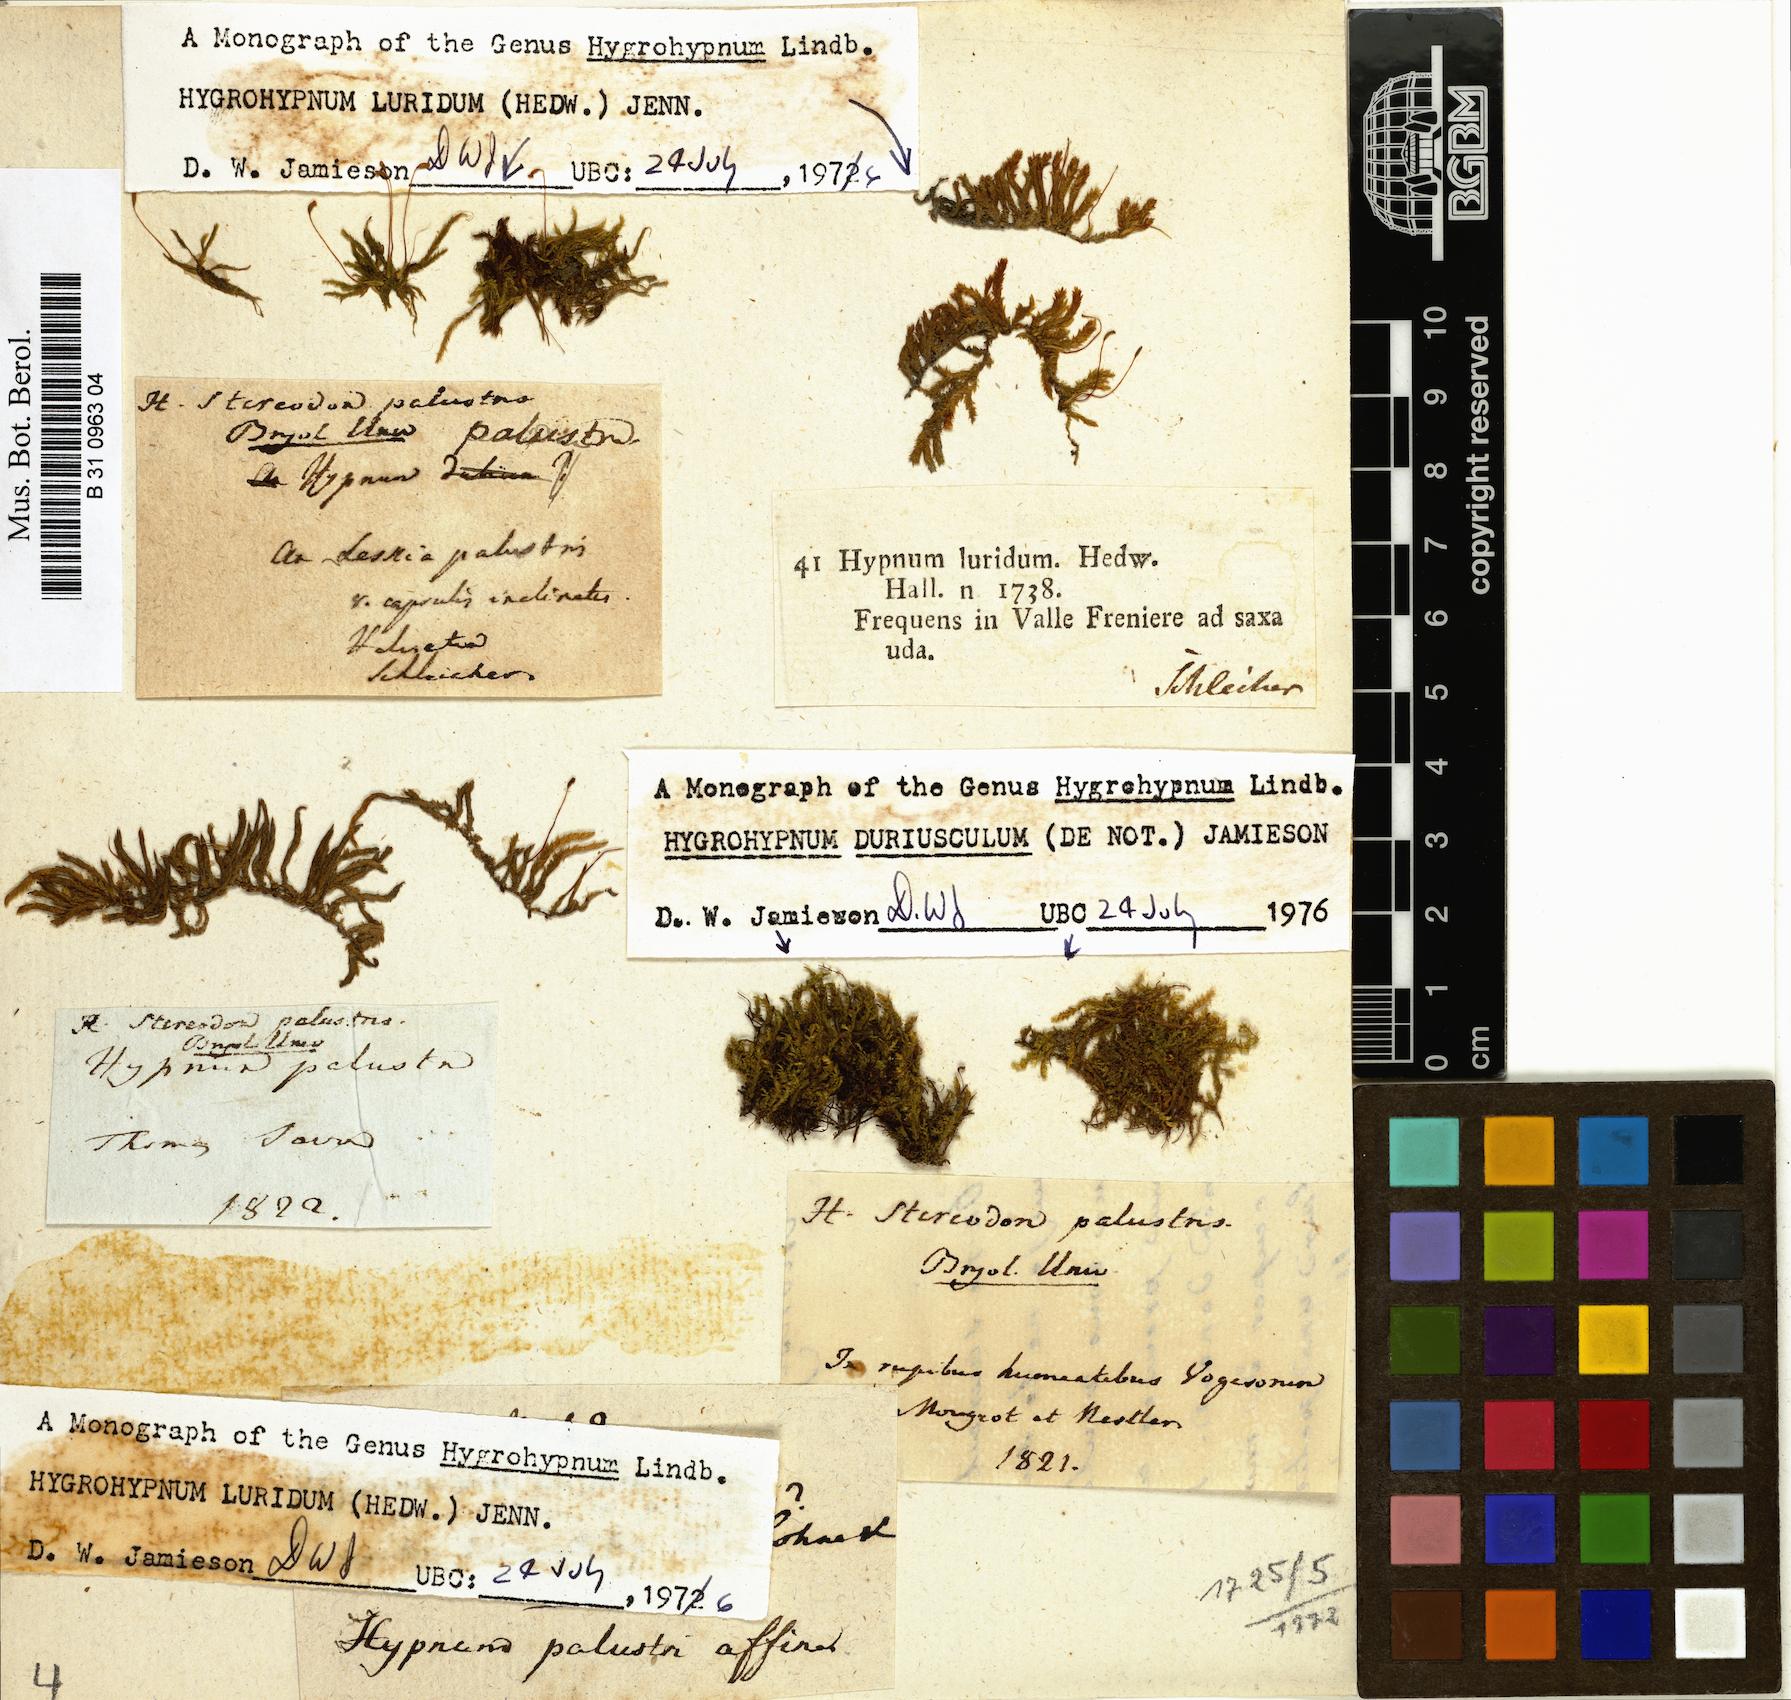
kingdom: Plantae
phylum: Bryophyta
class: Bryopsida
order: Hypnales
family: Amblystegiaceae
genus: Hygrohypnum
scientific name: Hygrohypnum luridum
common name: Drab brook moss
